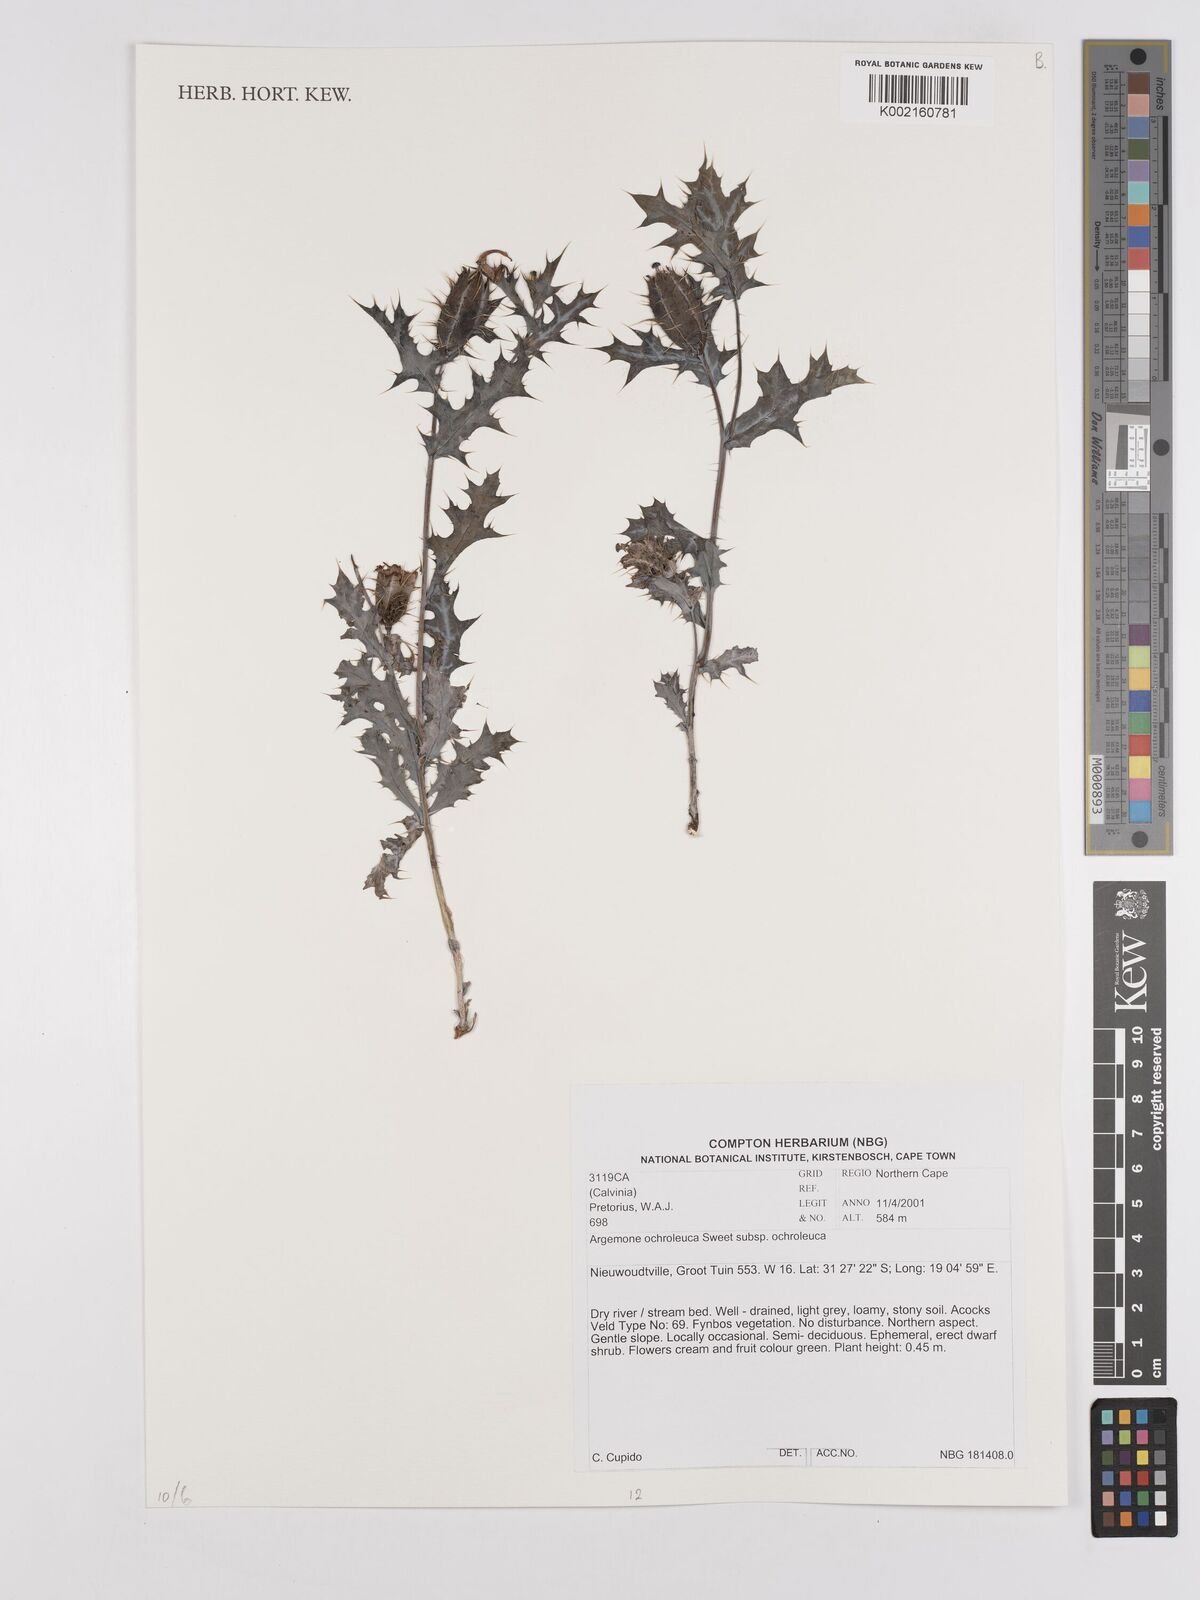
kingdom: Plantae
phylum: Tracheophyta
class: Magnoliopsida
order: Ranunculales
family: Papaveraceae
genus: Argemone
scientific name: Argemone ochroleuca
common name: White-flower mexican-poppy
